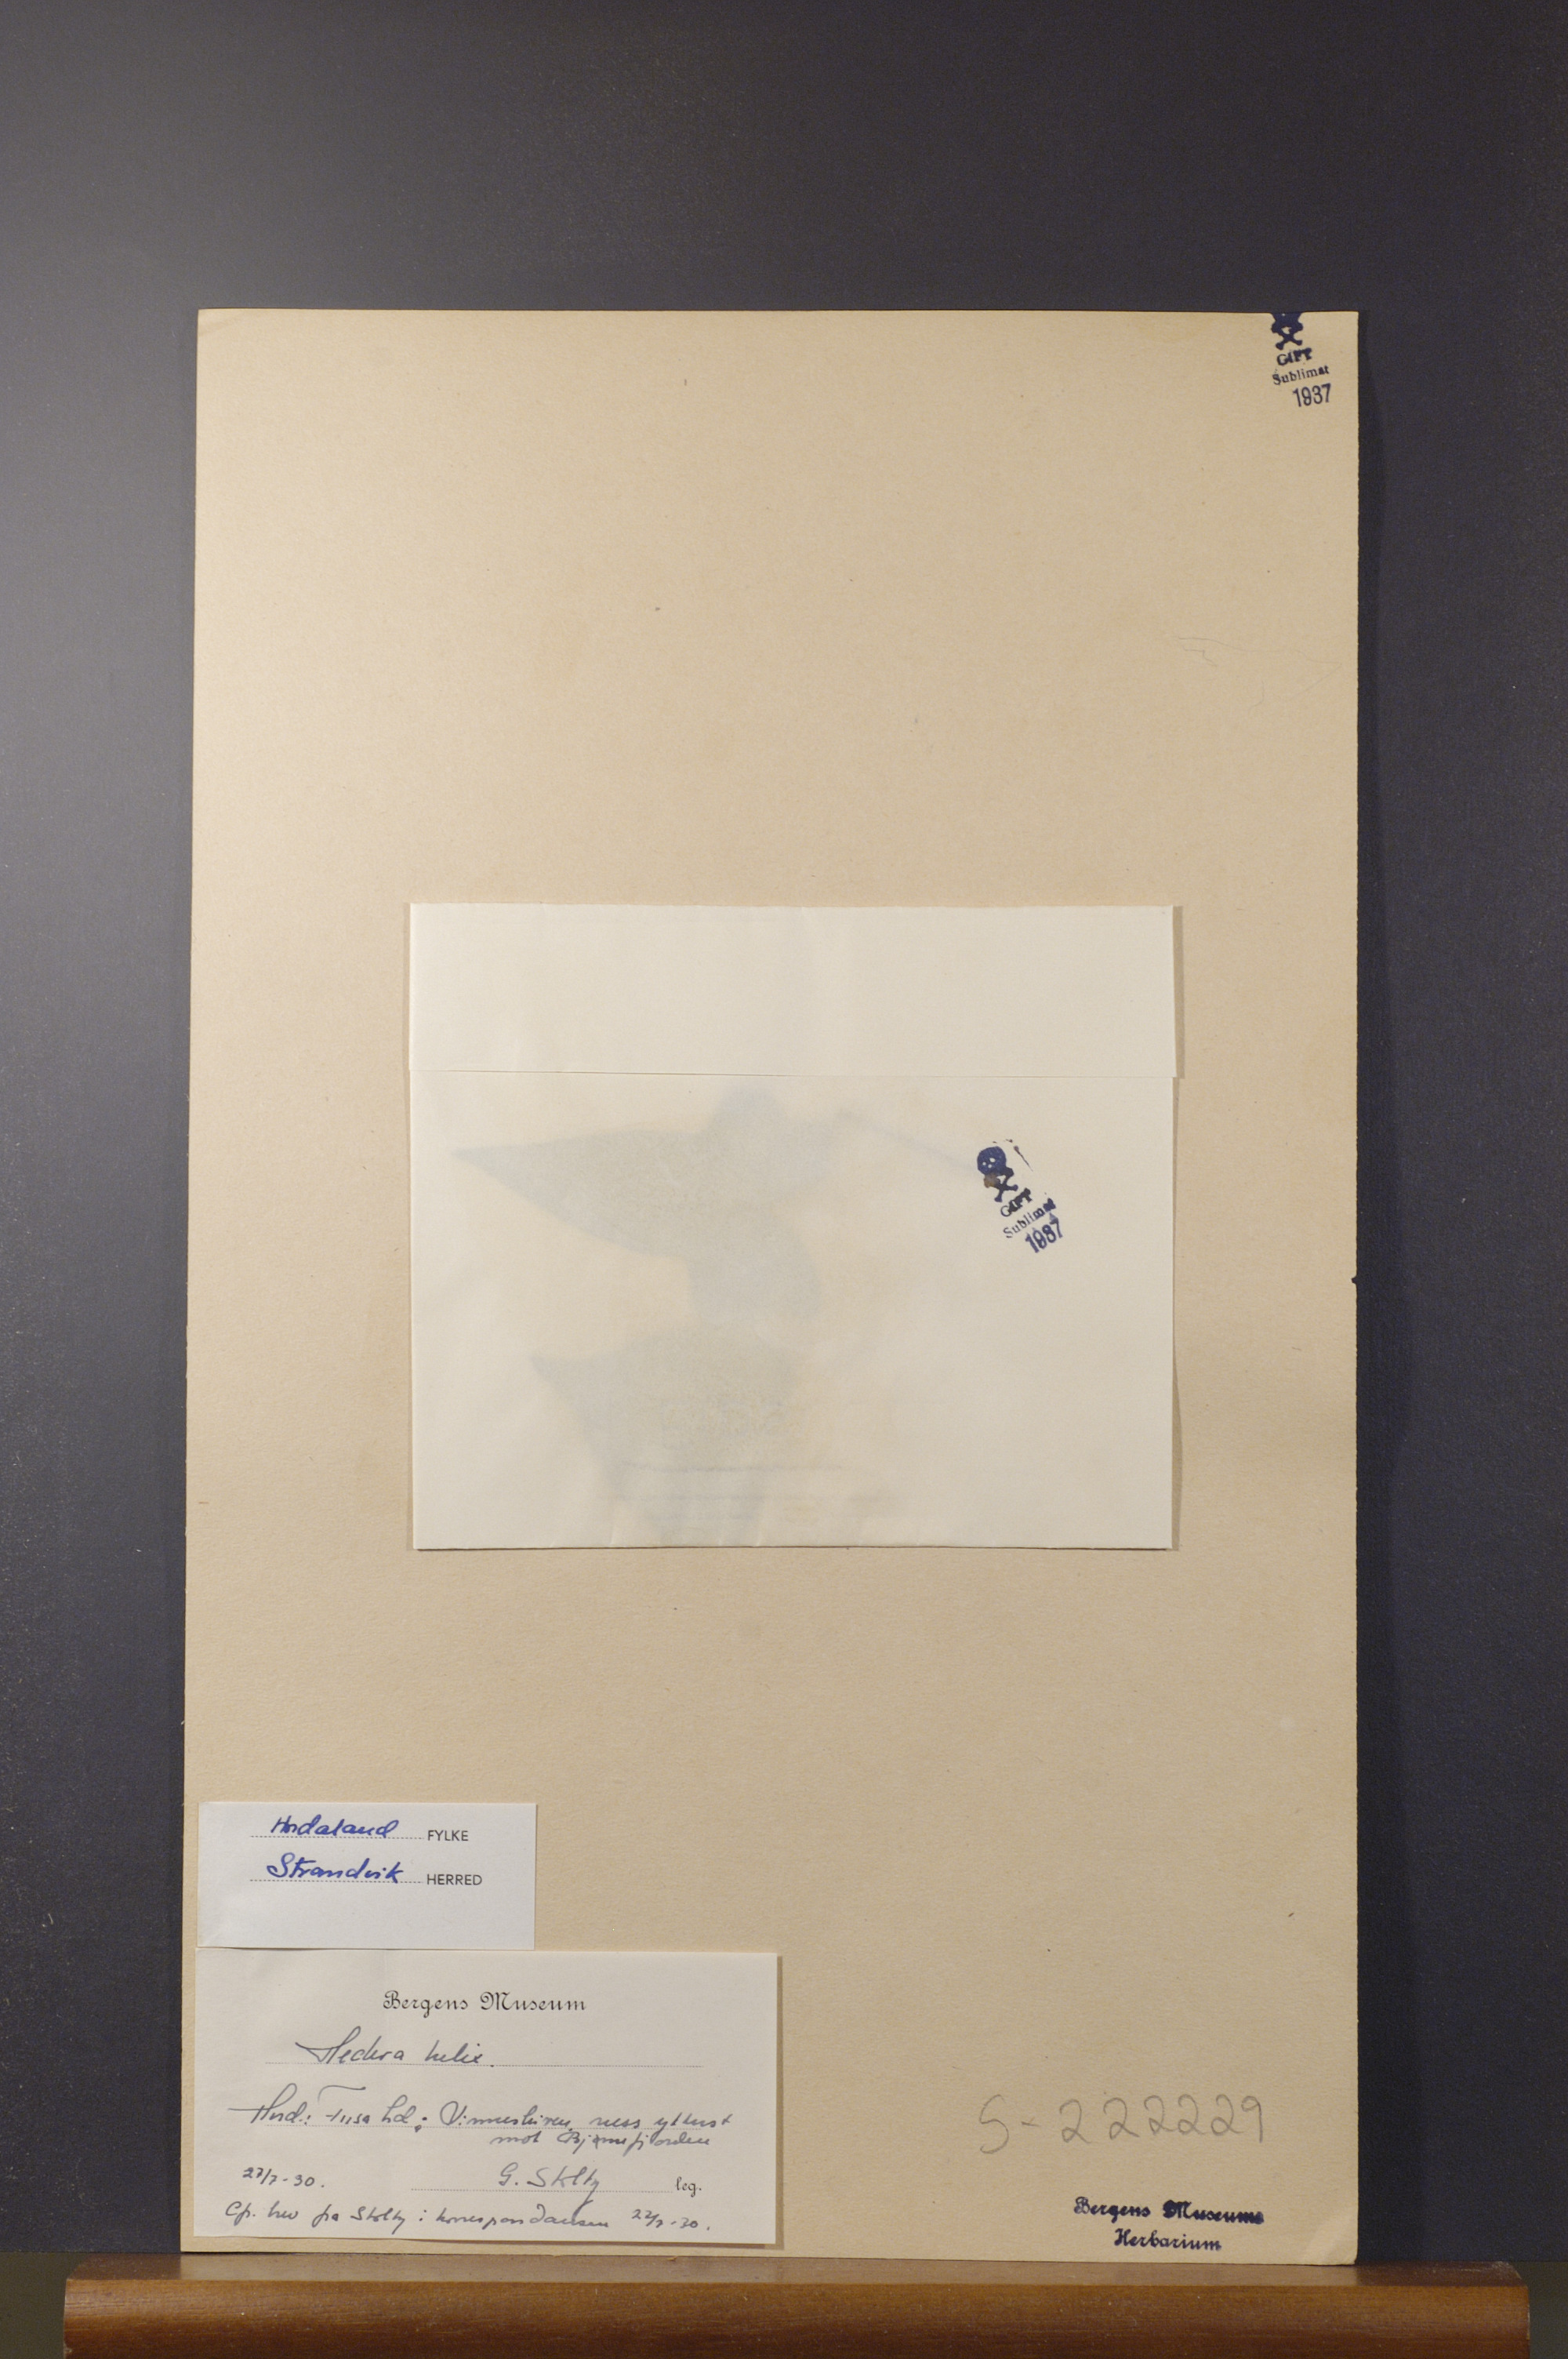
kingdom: Plantae
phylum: Tracheophyta
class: Magnoliopsida
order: Apiales
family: Araliaceae
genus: Hedera
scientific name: Hedera helix
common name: Ivy
